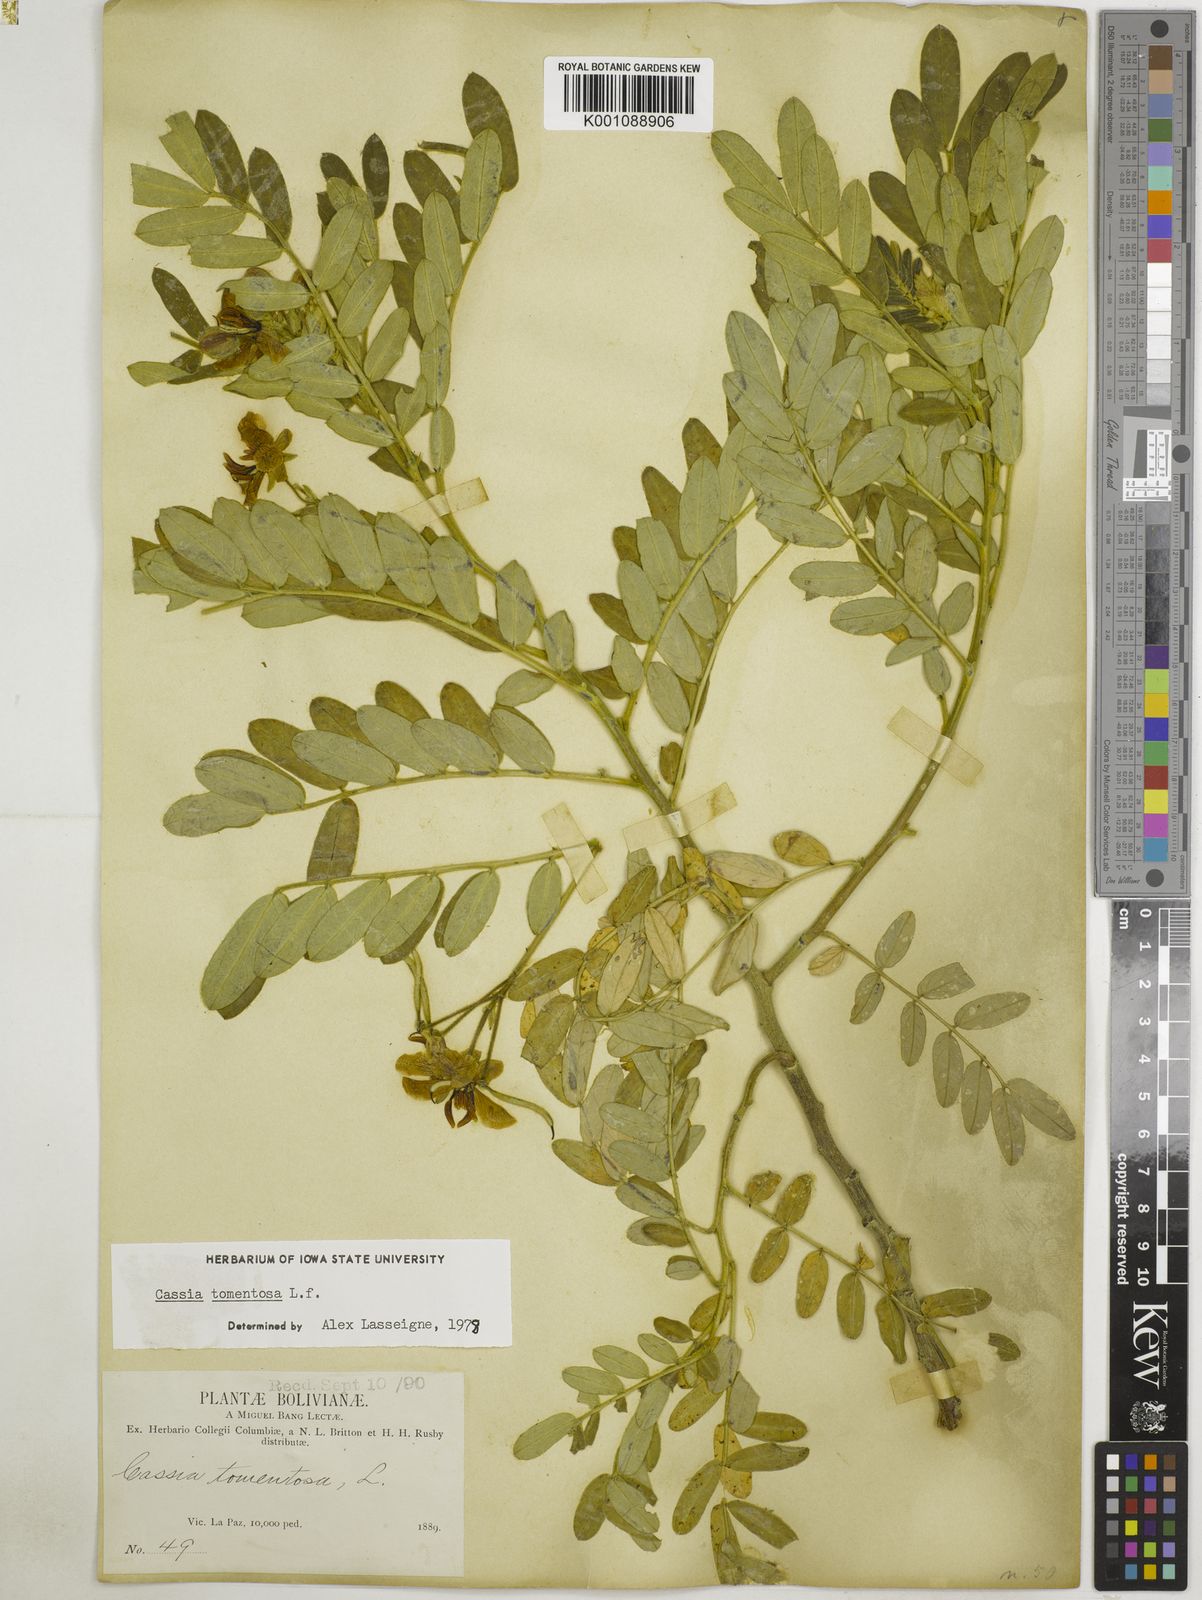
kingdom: Plantae
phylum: Tracheophyta
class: Magnoliopsida
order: Fabales
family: Fabaceae
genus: Senna
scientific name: Senna multiglandulosa
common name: Glandular senna
